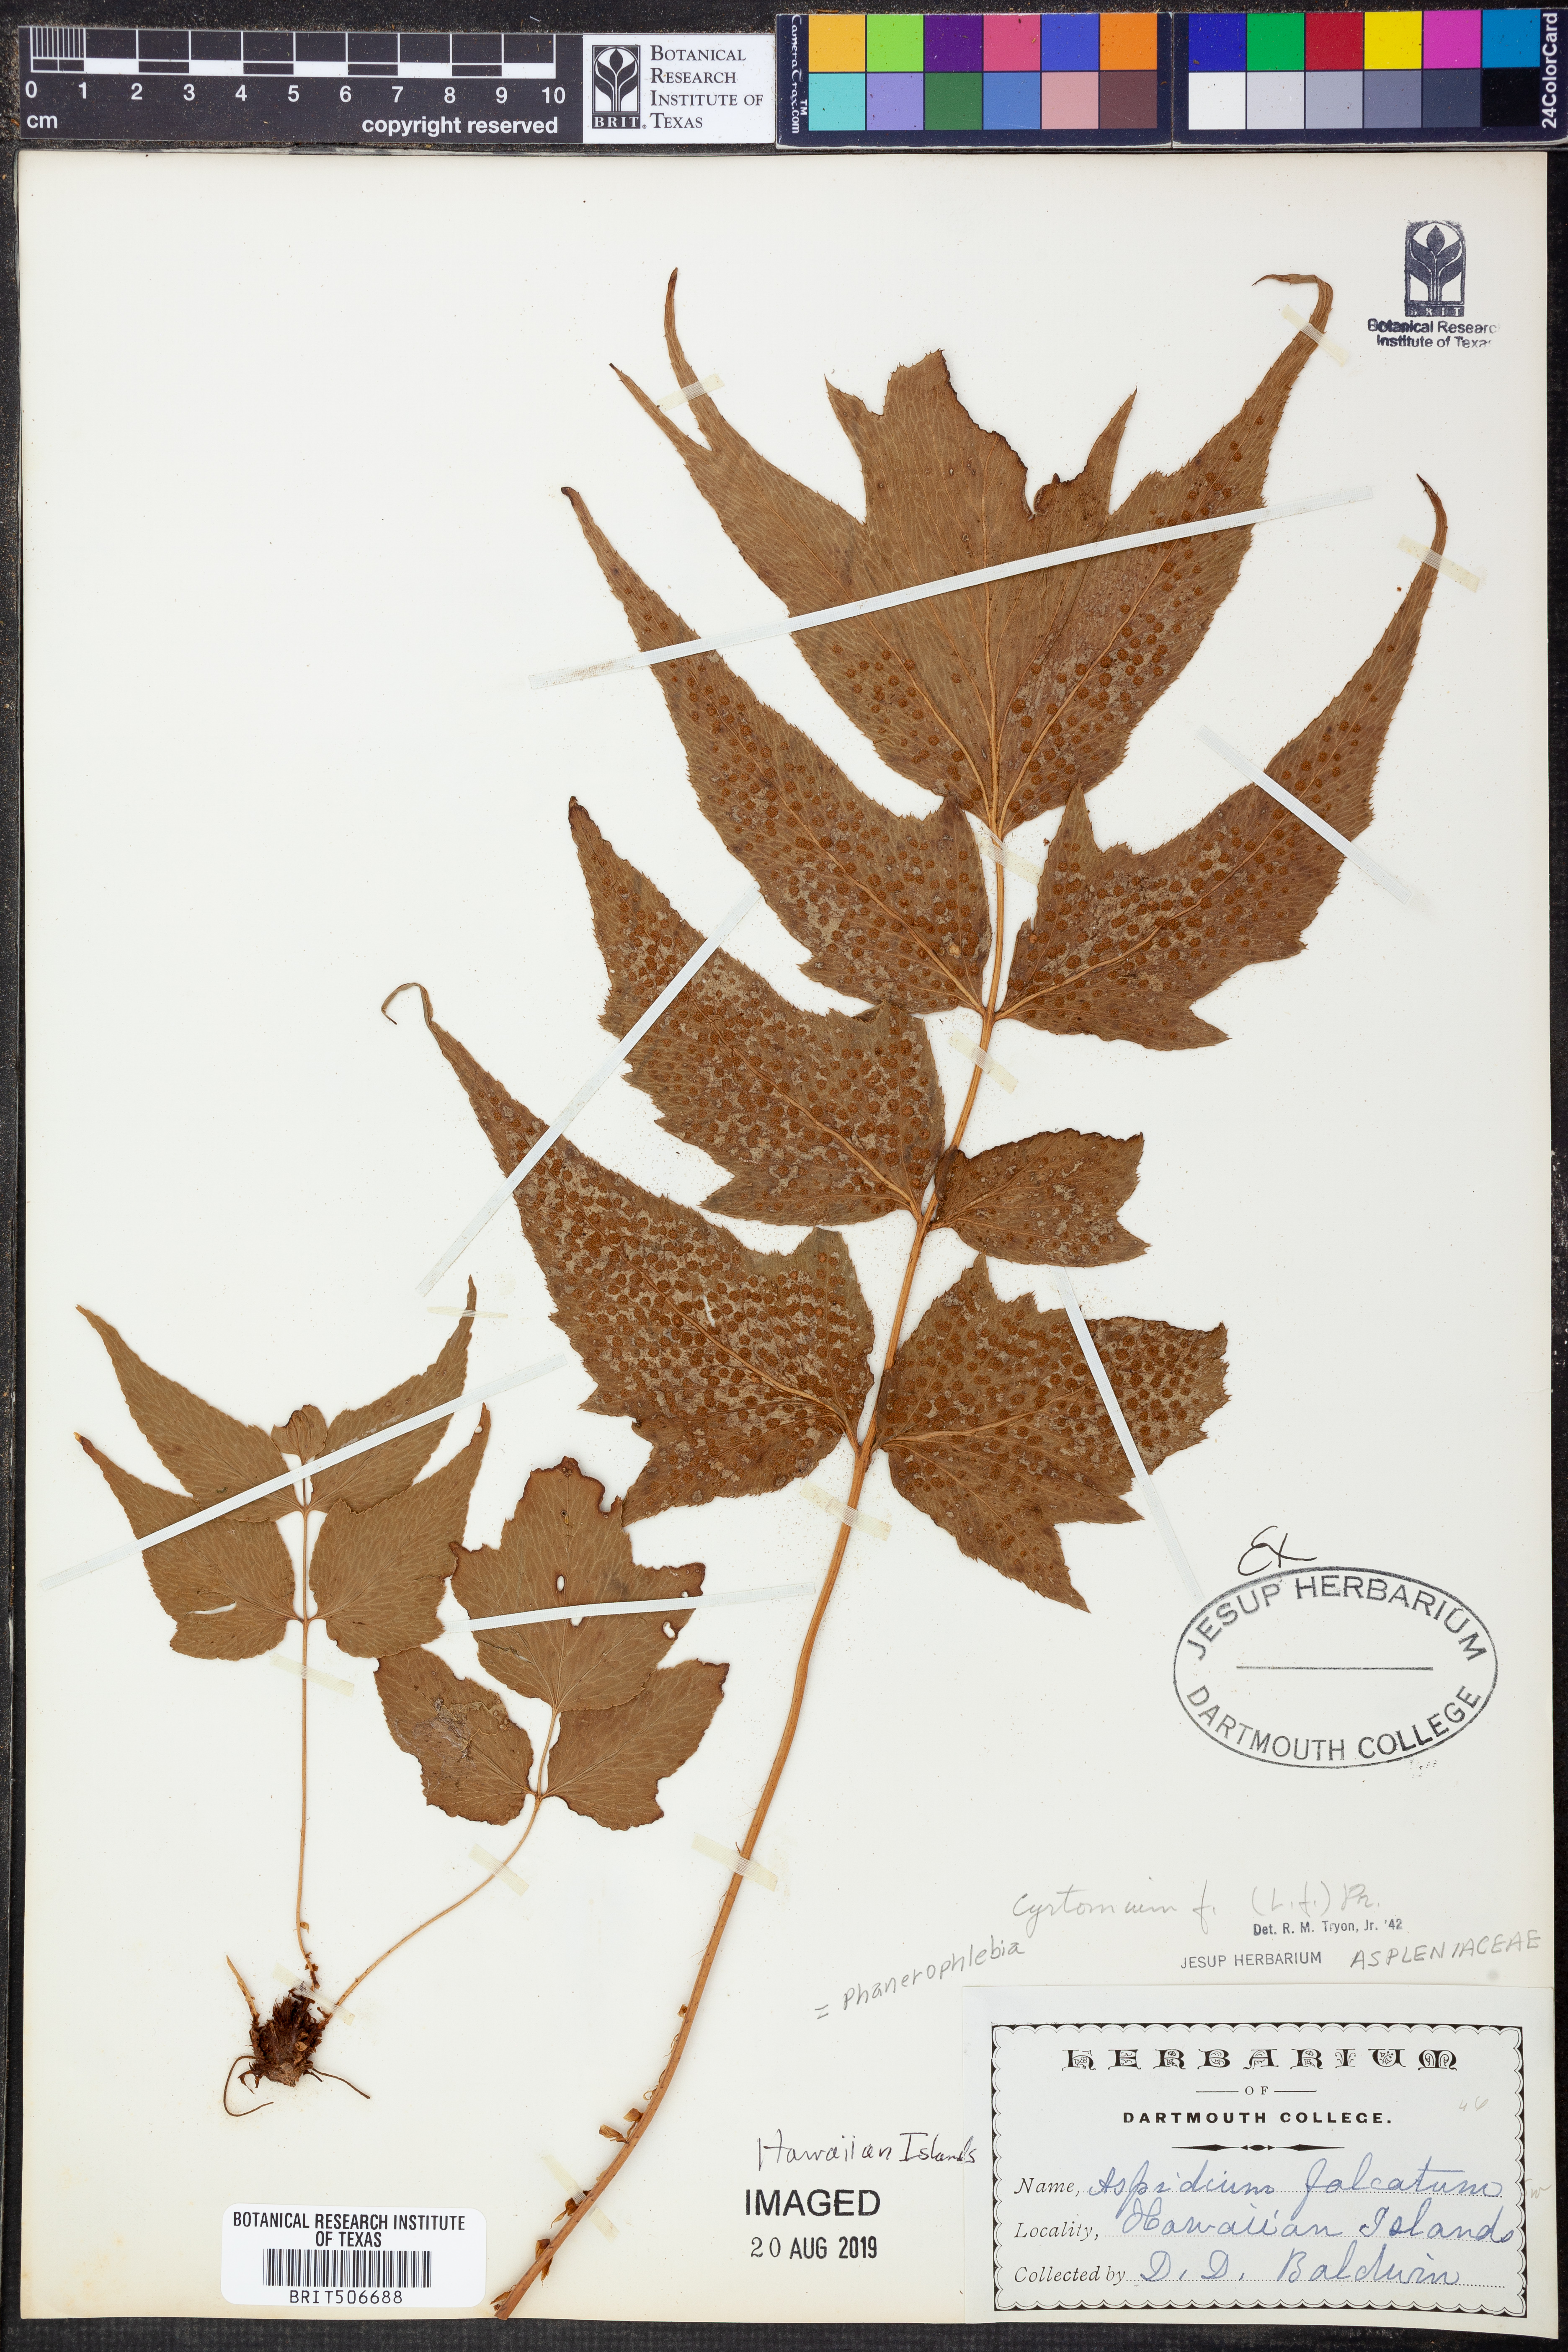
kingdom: Plantae
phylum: Tracheophyta
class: Polypodiopsida
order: Polypodiales
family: Dryopteridaceae
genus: Cyrtomium
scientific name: Cyrtomium falcatum
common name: House holly-fern
